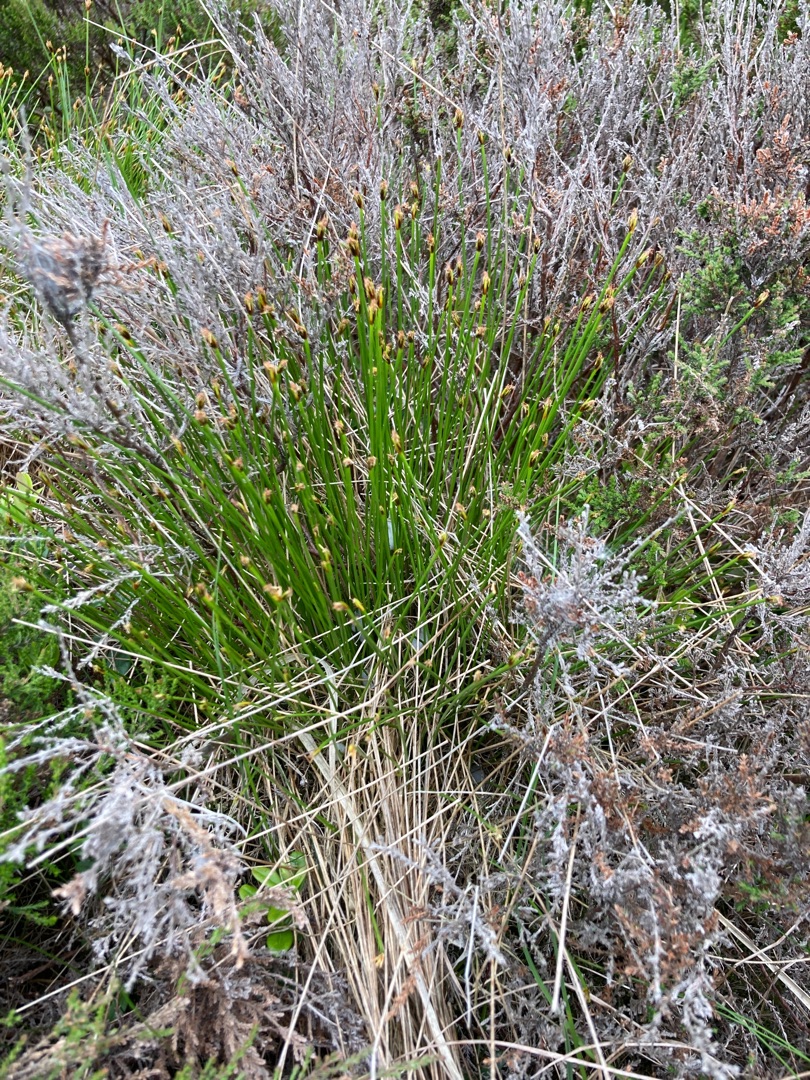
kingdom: Plantae
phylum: Tracheophyta
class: Liliopsida
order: Poales
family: Cyperaceae
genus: Trichophorum
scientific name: Trichophorum cespitosum
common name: Tuekogleaks
